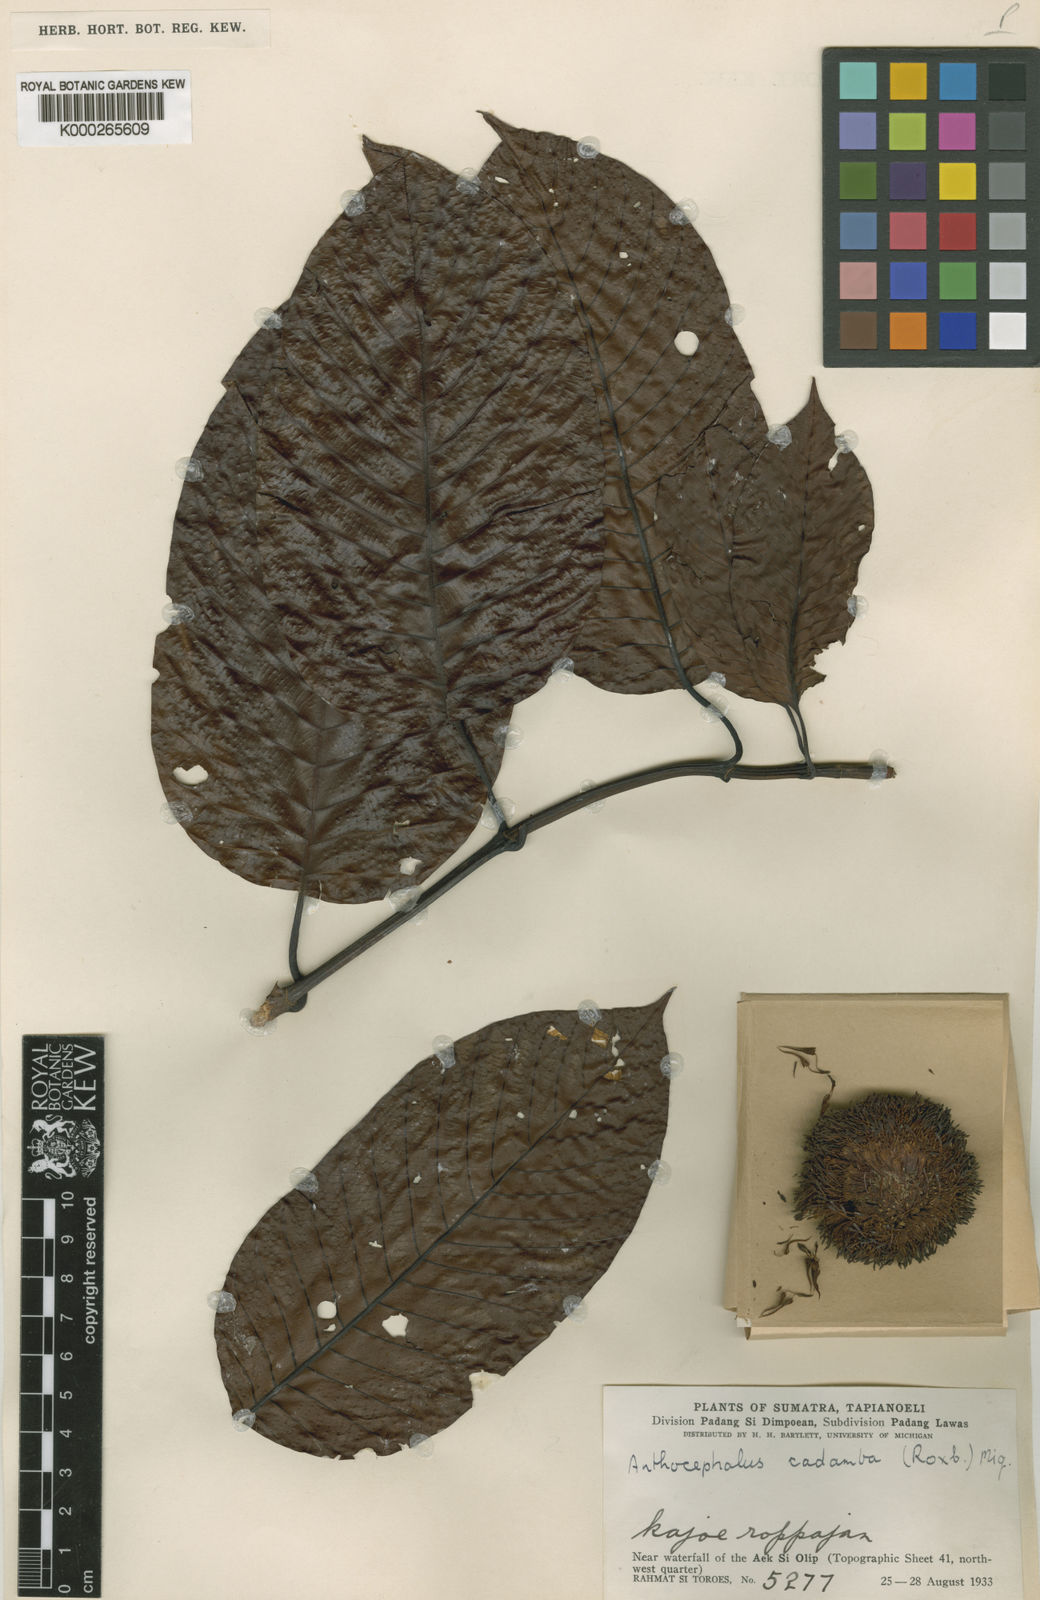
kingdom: Plantae
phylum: Tracheophyta
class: Magnoliopsida
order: Gentianales
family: Rubiaceae
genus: Neolamarckia
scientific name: Neolamarckia cadamba
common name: Leichhardt-pine
